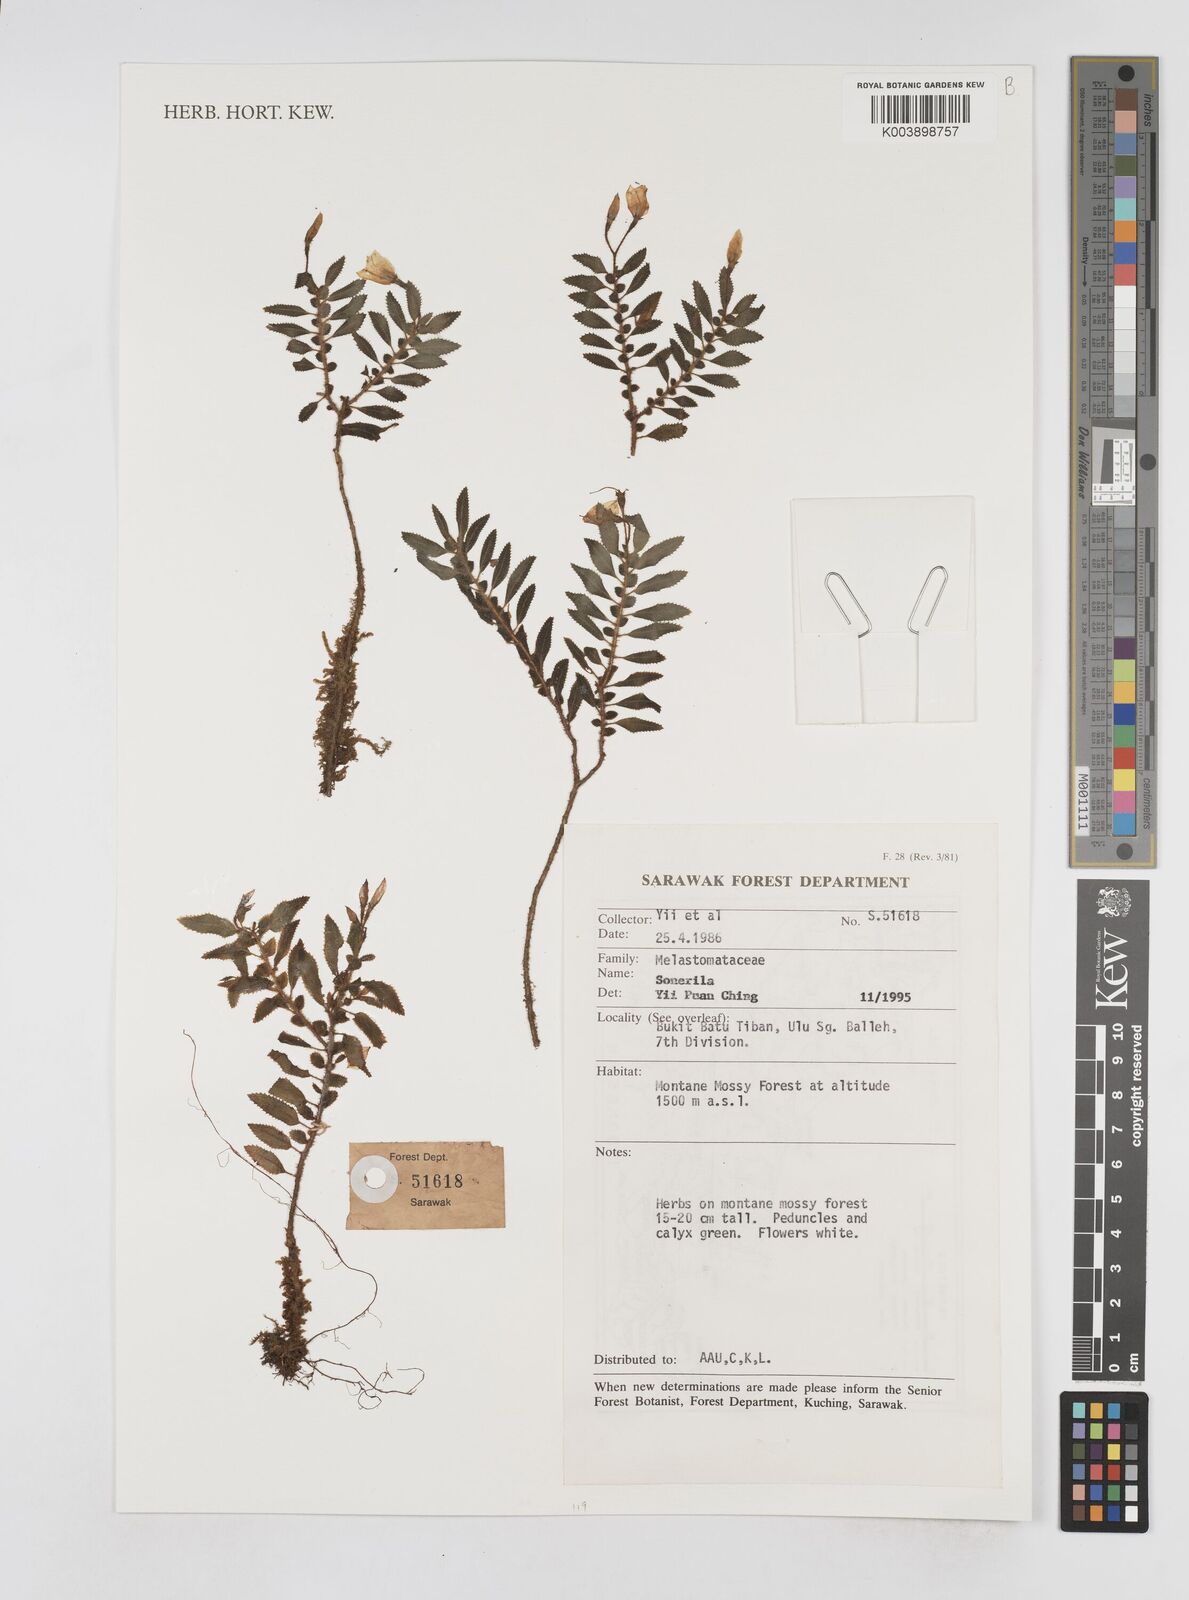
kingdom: Plantae
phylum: Tracheophyta
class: Magnoliopsida
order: Myrtales
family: Melastomataceae
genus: Sonerila
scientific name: Sonerila
